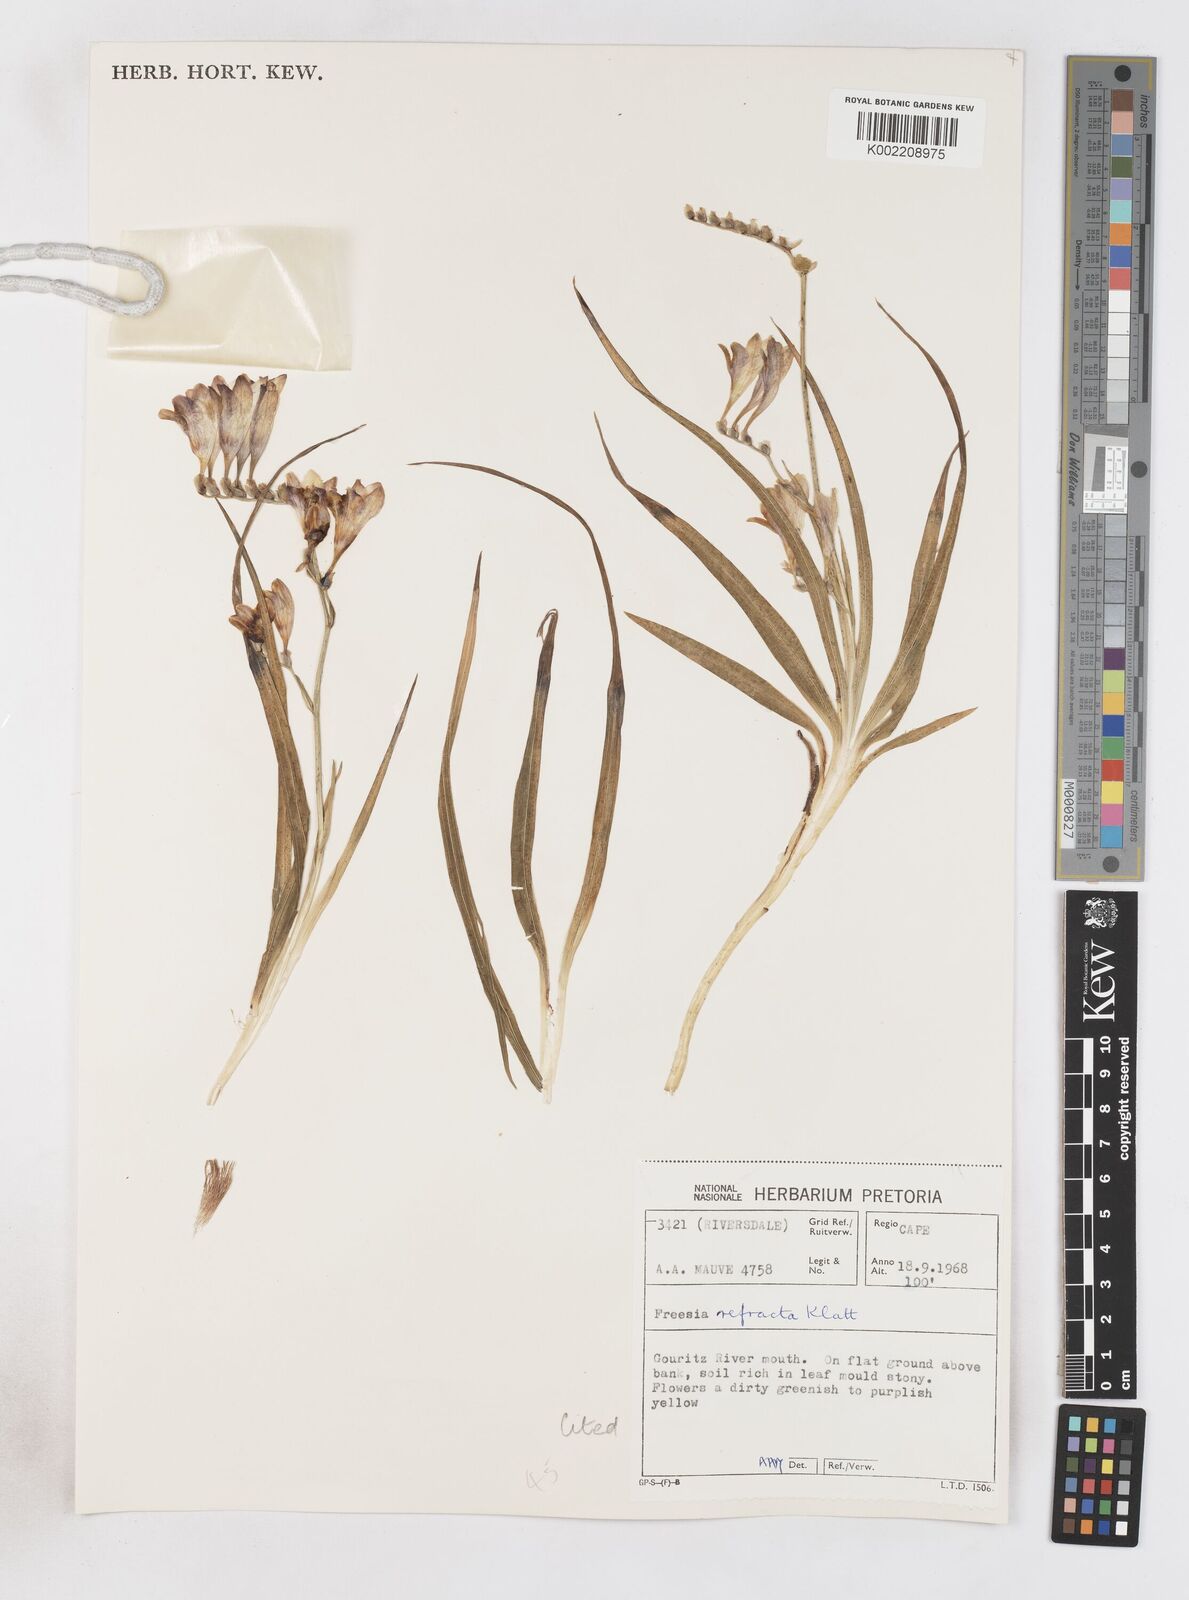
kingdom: Plantae
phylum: Tracheophyta
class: Liliopsida
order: Asparagales
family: Iridaceae
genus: Freesia
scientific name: Freesia refracta
